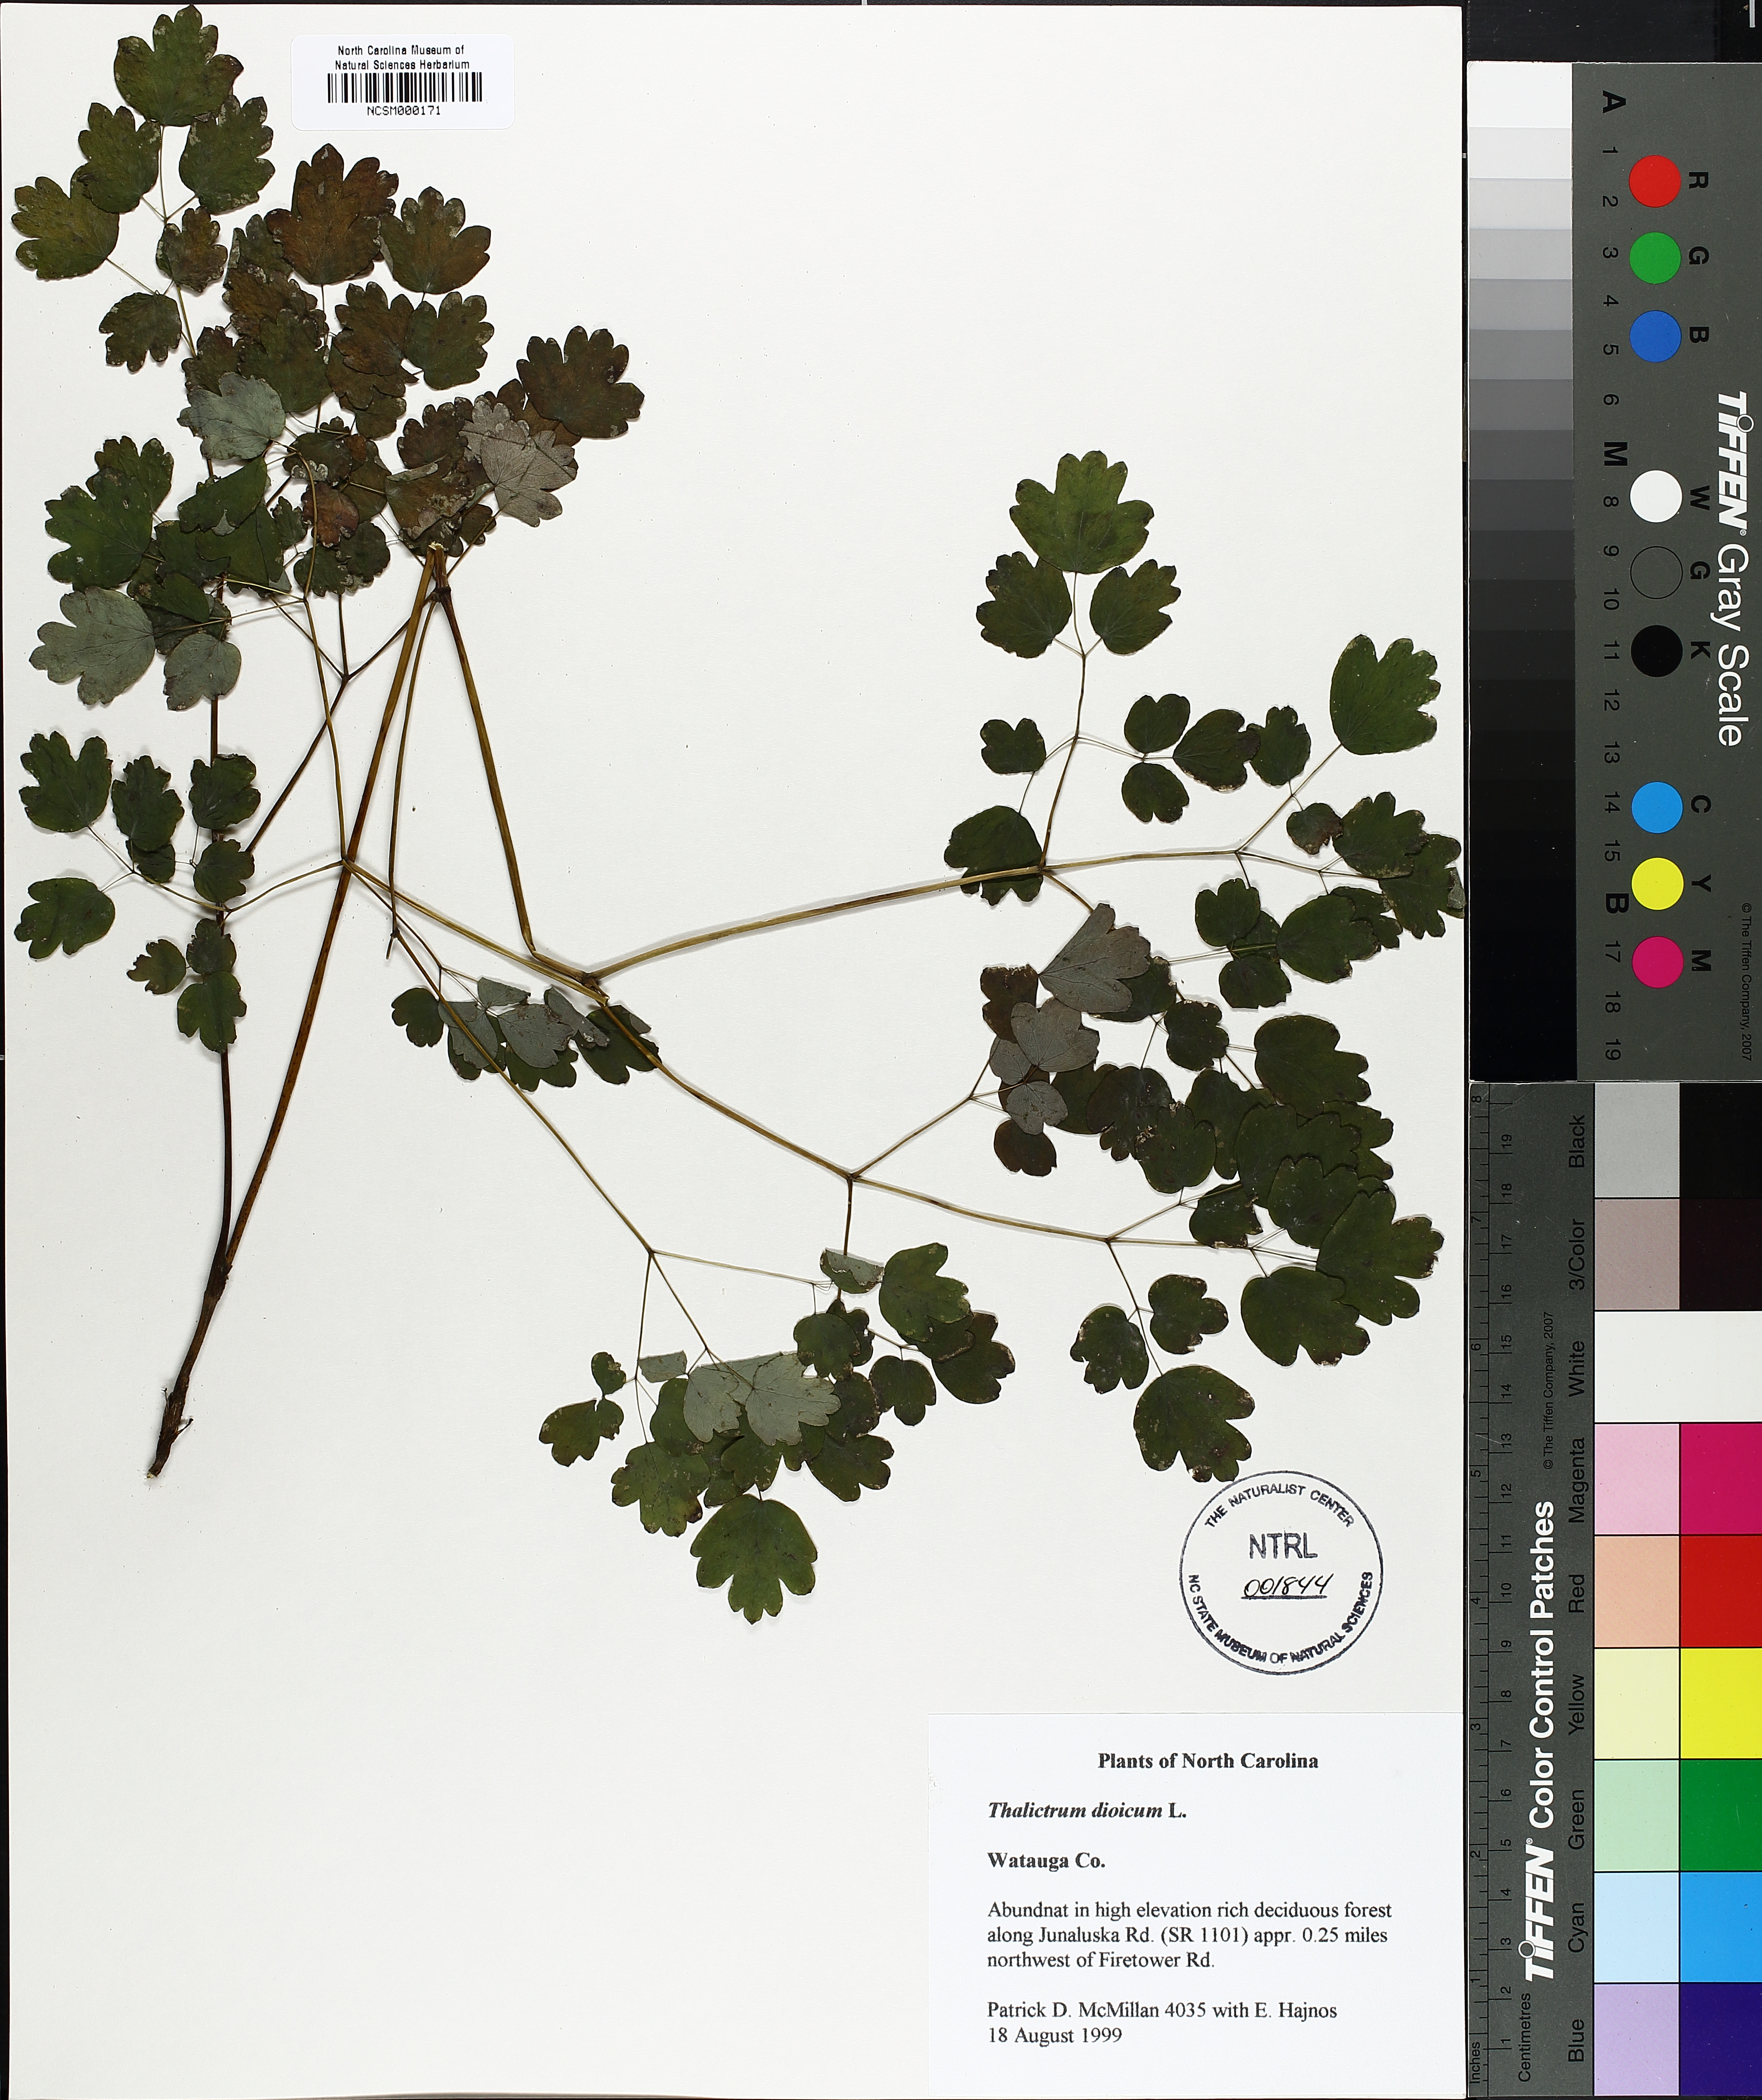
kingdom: Plantae
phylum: Tracheophyta
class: Magnoliopsida
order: Ranunculales
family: Ranunculaceae
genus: Thalictrum
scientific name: Thalictrum dioicum
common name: Early meadow-rue
